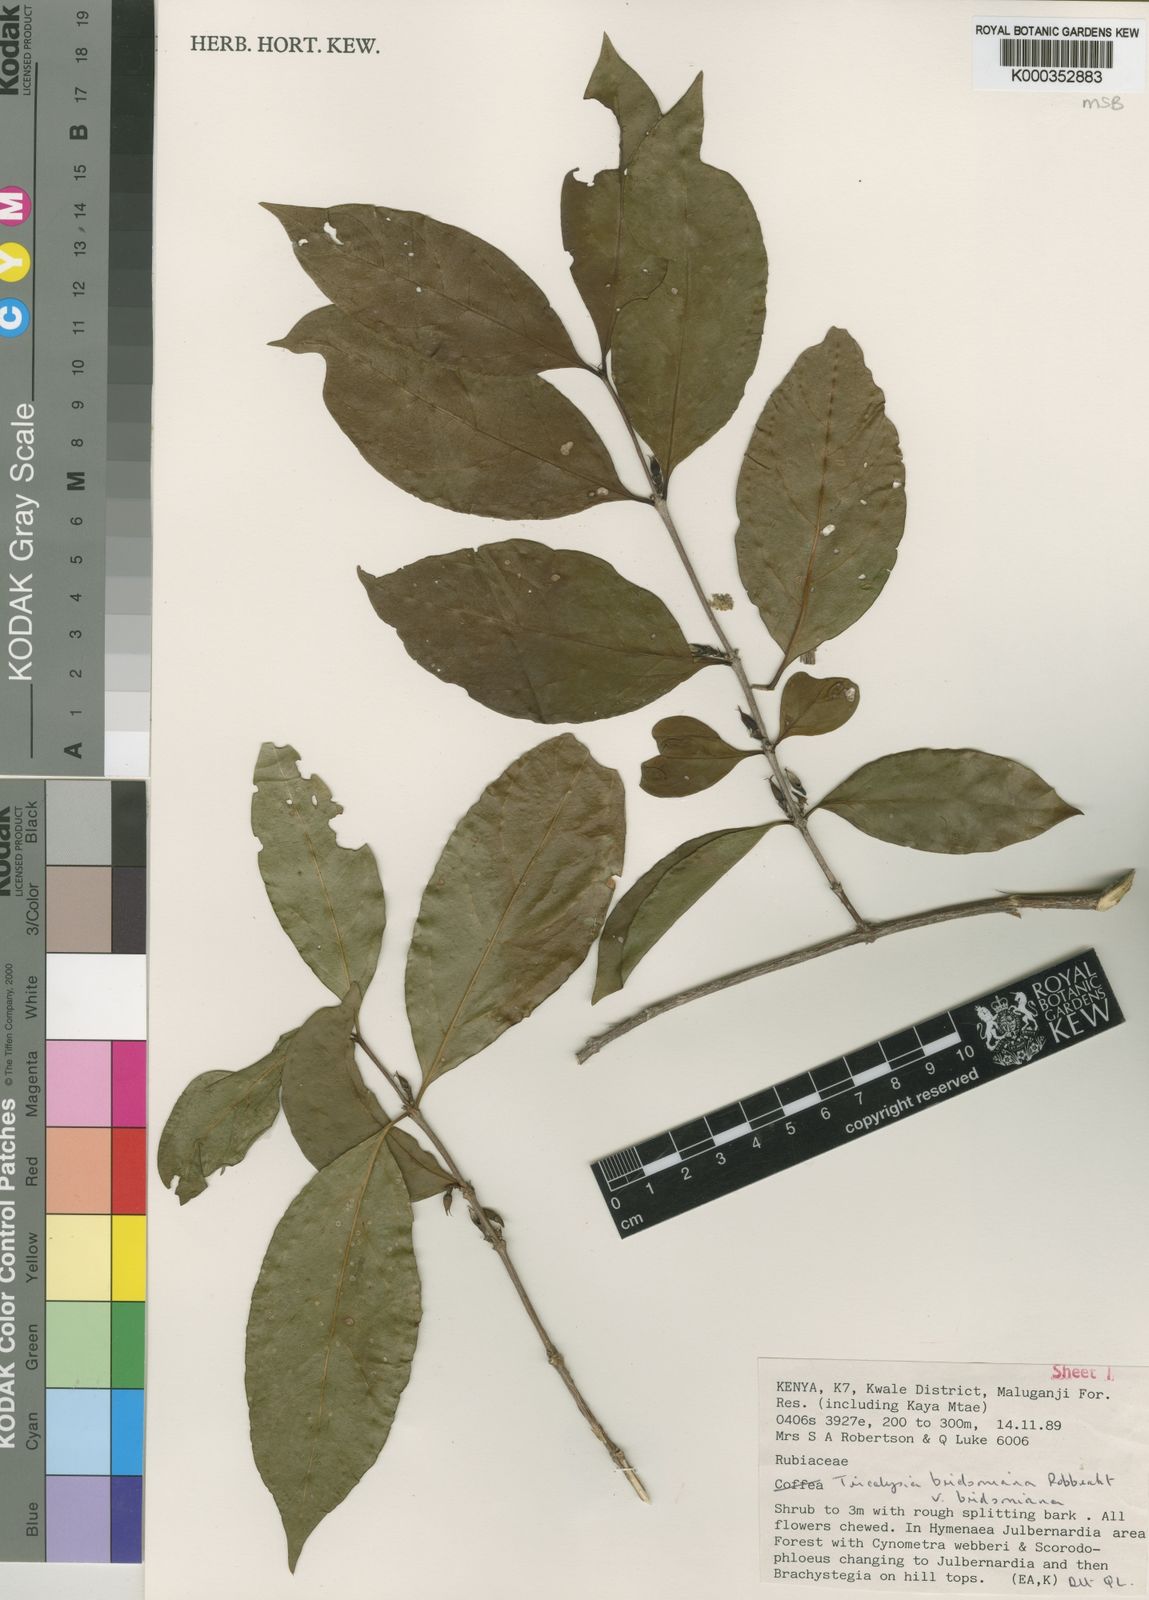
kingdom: Plantae
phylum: Tracheophyta
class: Magnoliopsida
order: Gentianales
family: Rubiaceae
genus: Tricalysia
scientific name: Tricalysia bridsoniana
